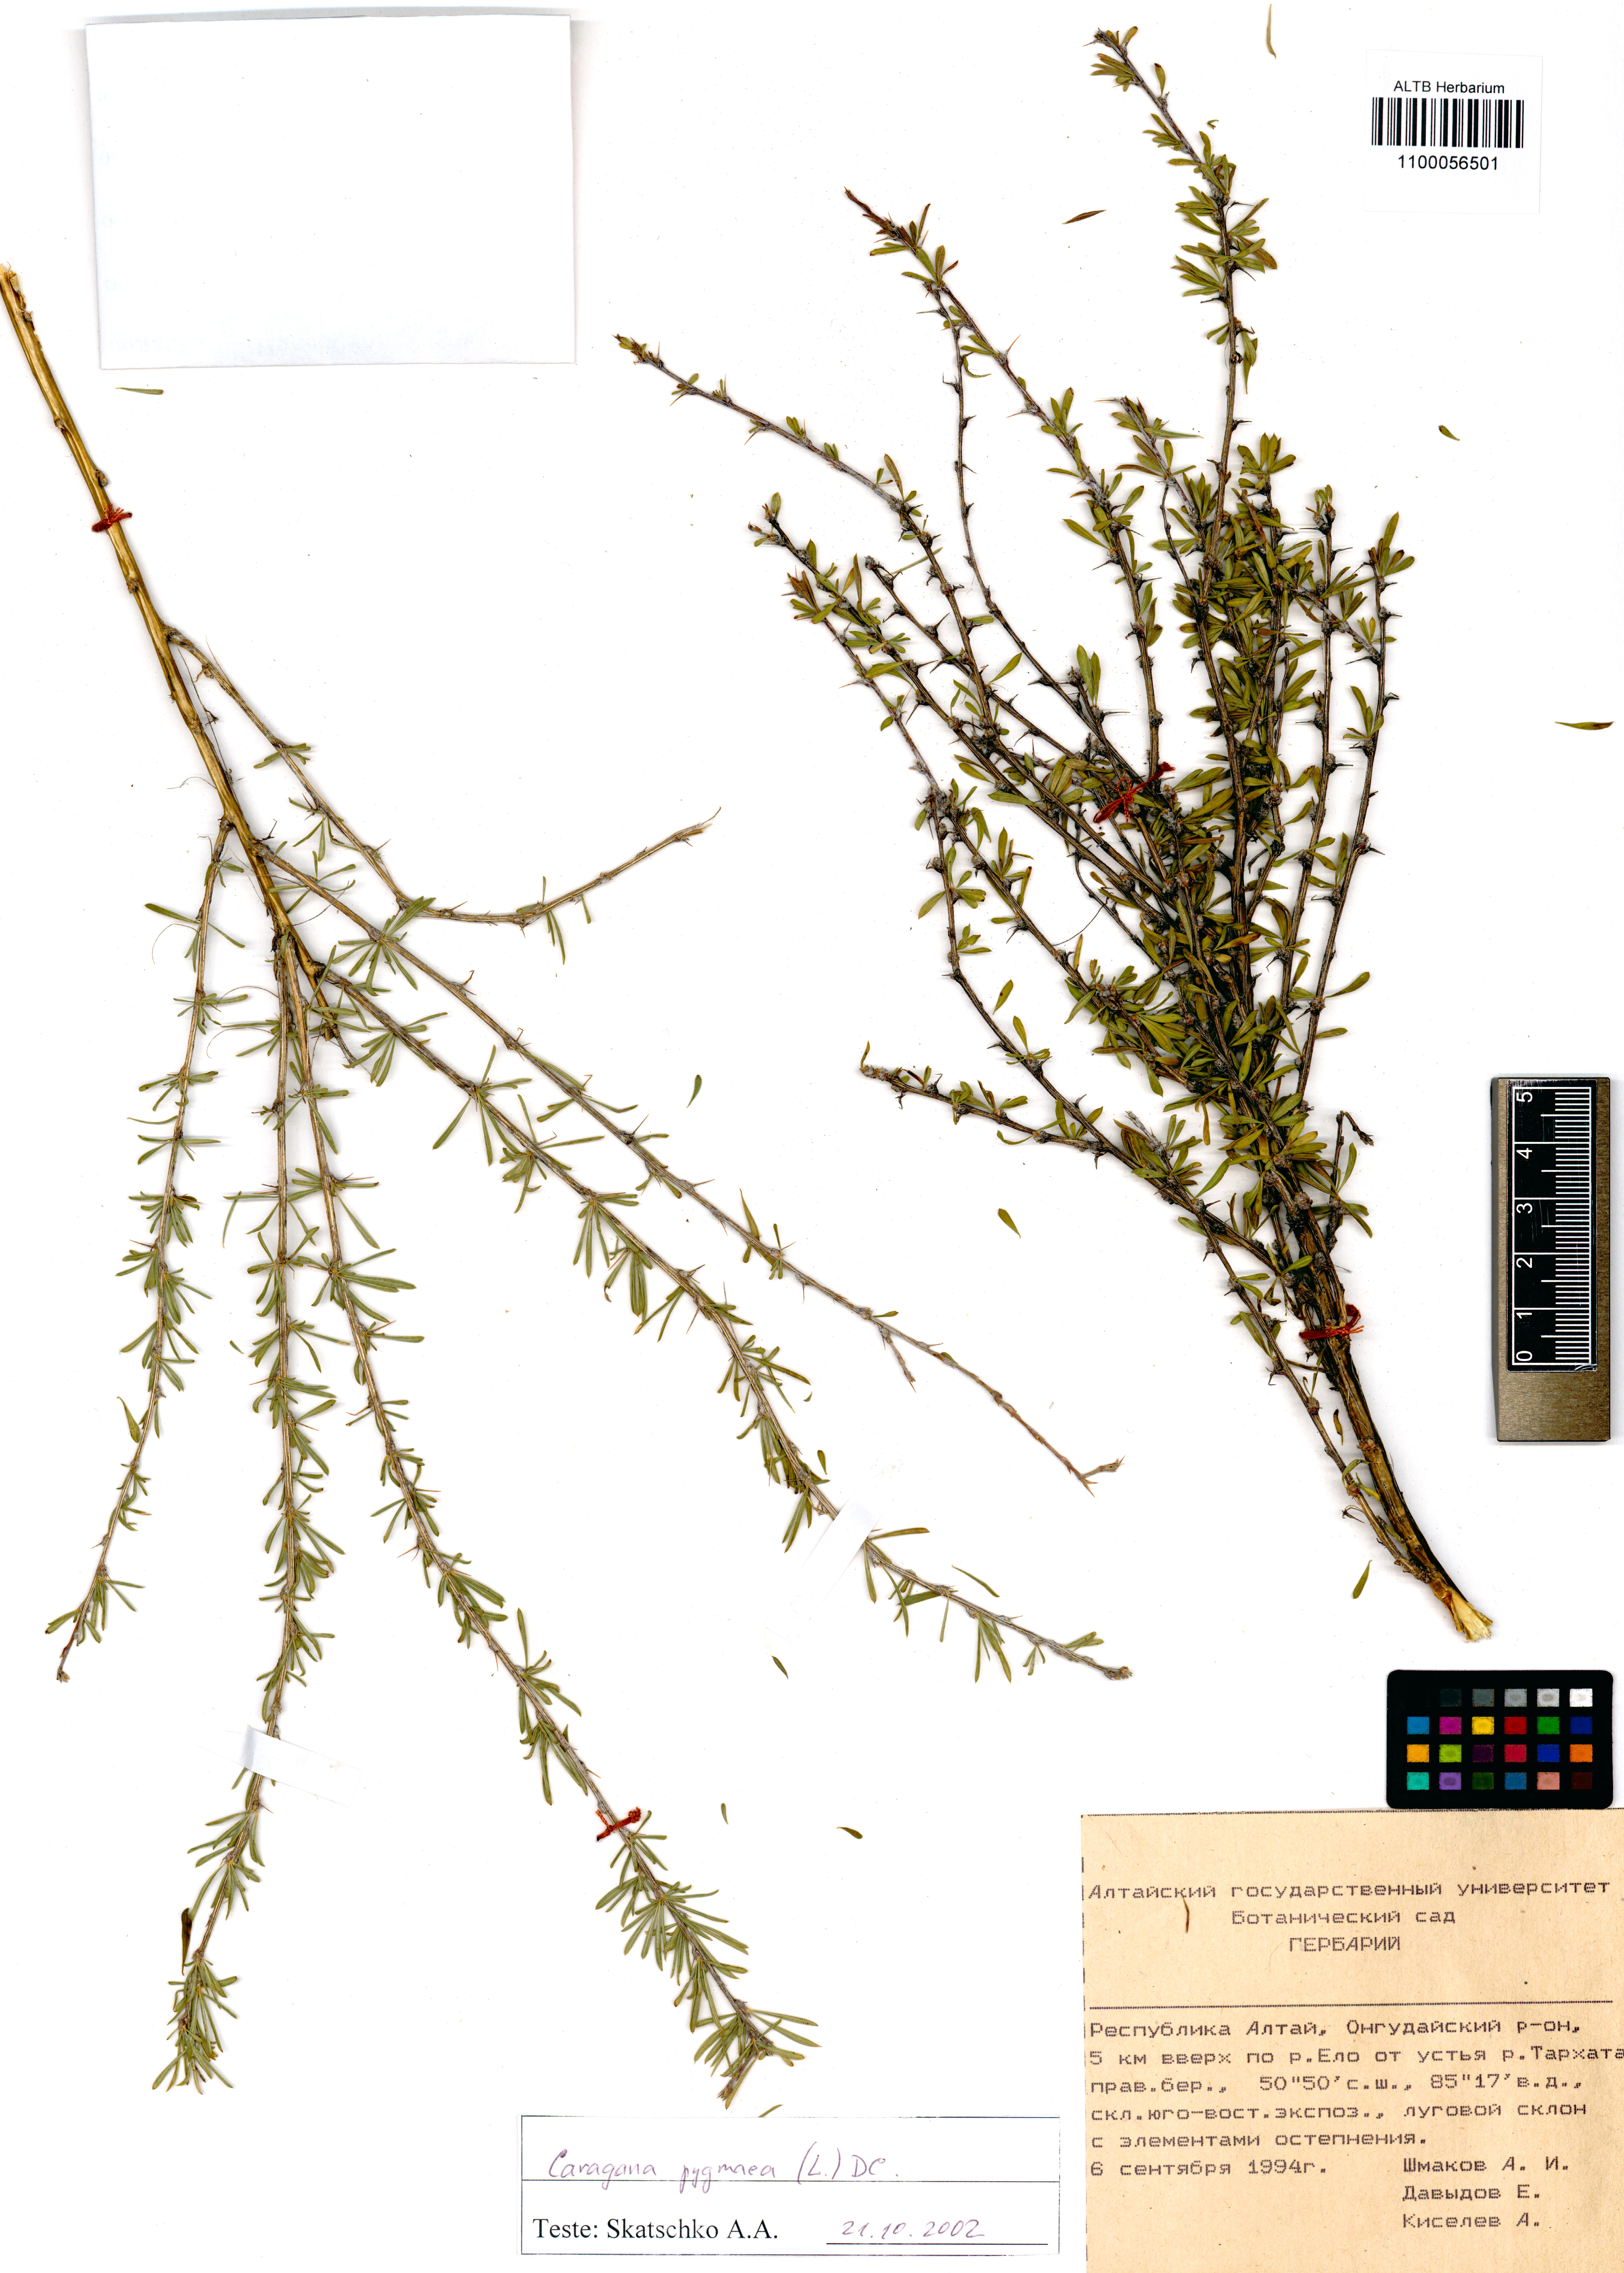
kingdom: Plantae
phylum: Tracheophyta
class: Magnoliopsida
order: Fabales
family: Fabaceae
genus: Caragana
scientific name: Caragana pygmaea
